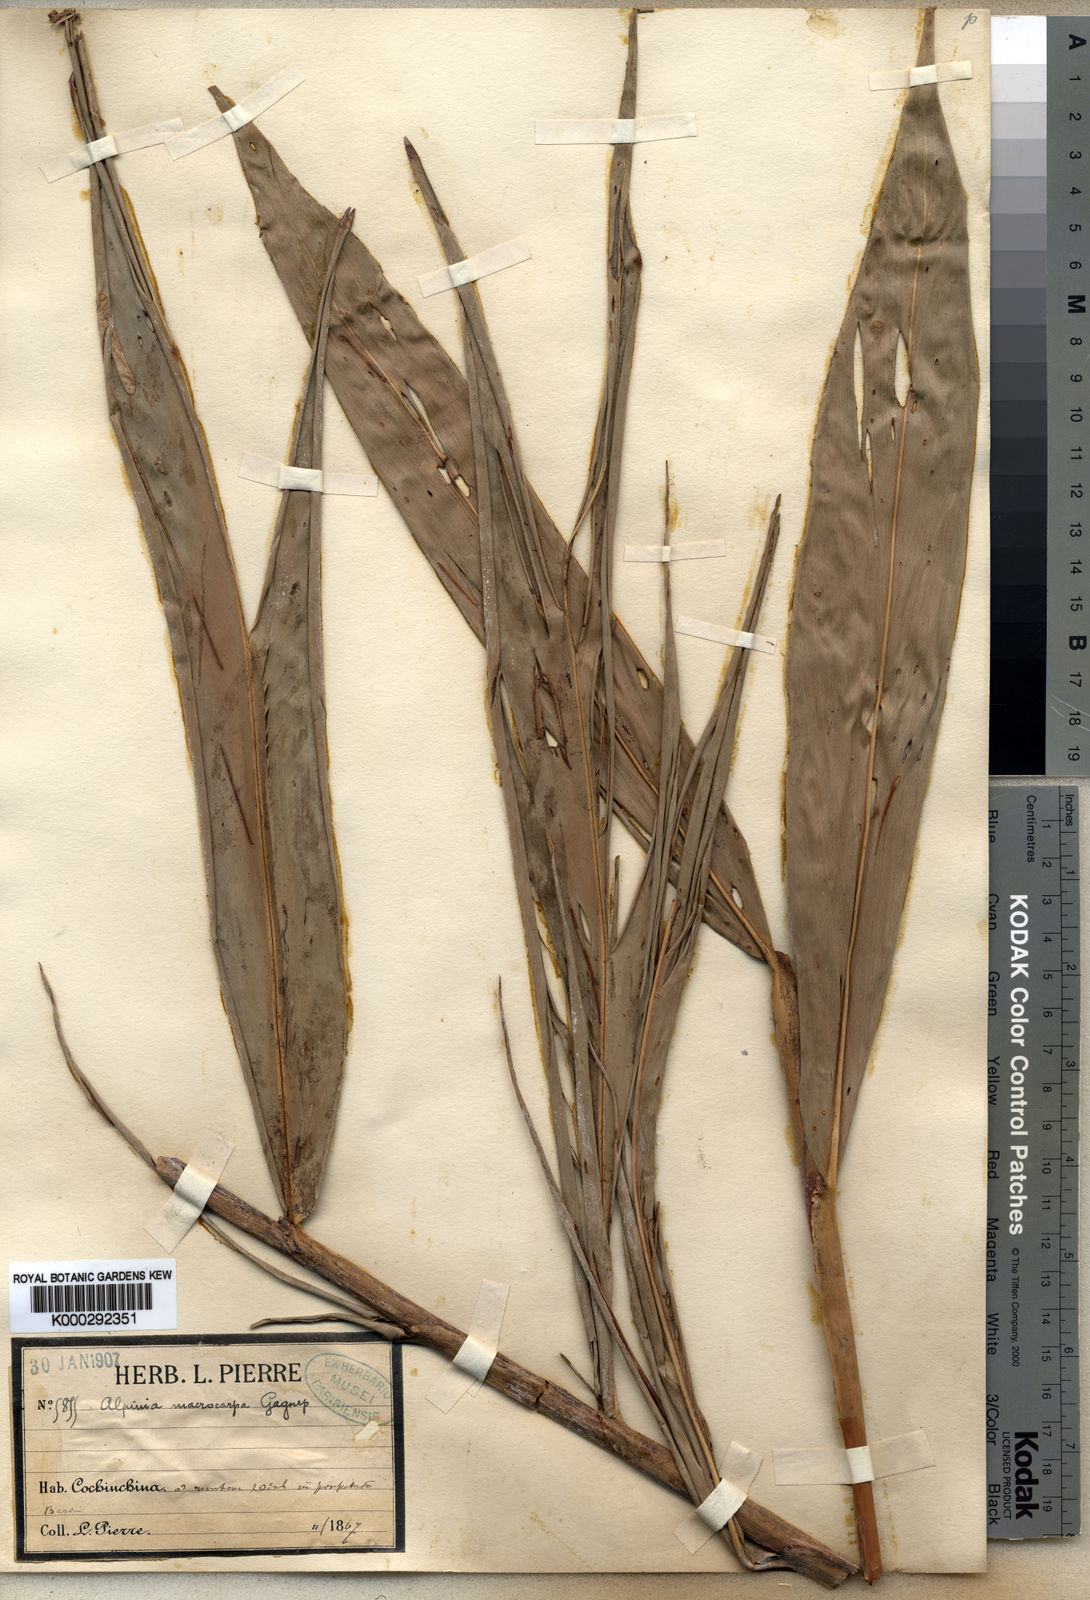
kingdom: Plantae
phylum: Tracheophyta
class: Liliopsida
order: Zingiberales
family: Zingiberaceae
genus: Alpinia
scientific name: Alpinia oxymitra
